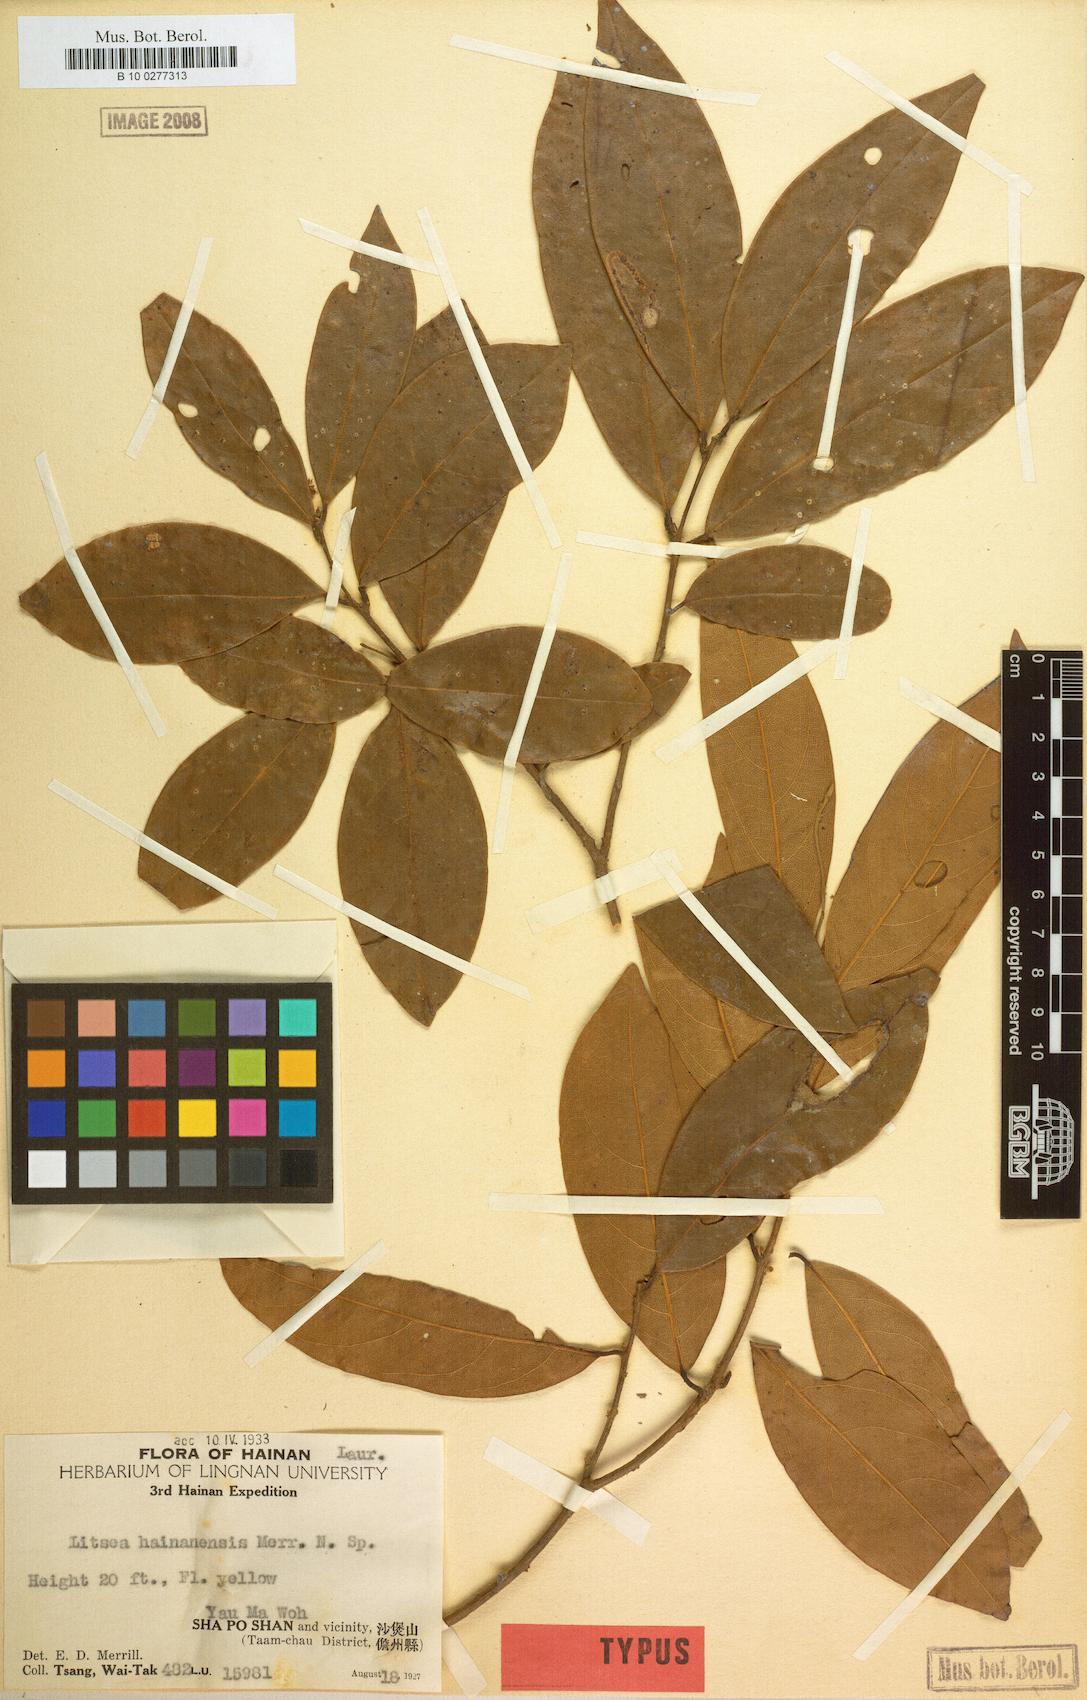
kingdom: Plantae
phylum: Tracheophyta
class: Magnoliopsida
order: Laurales
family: Lauraceae
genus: Litsea
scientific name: Litsea
